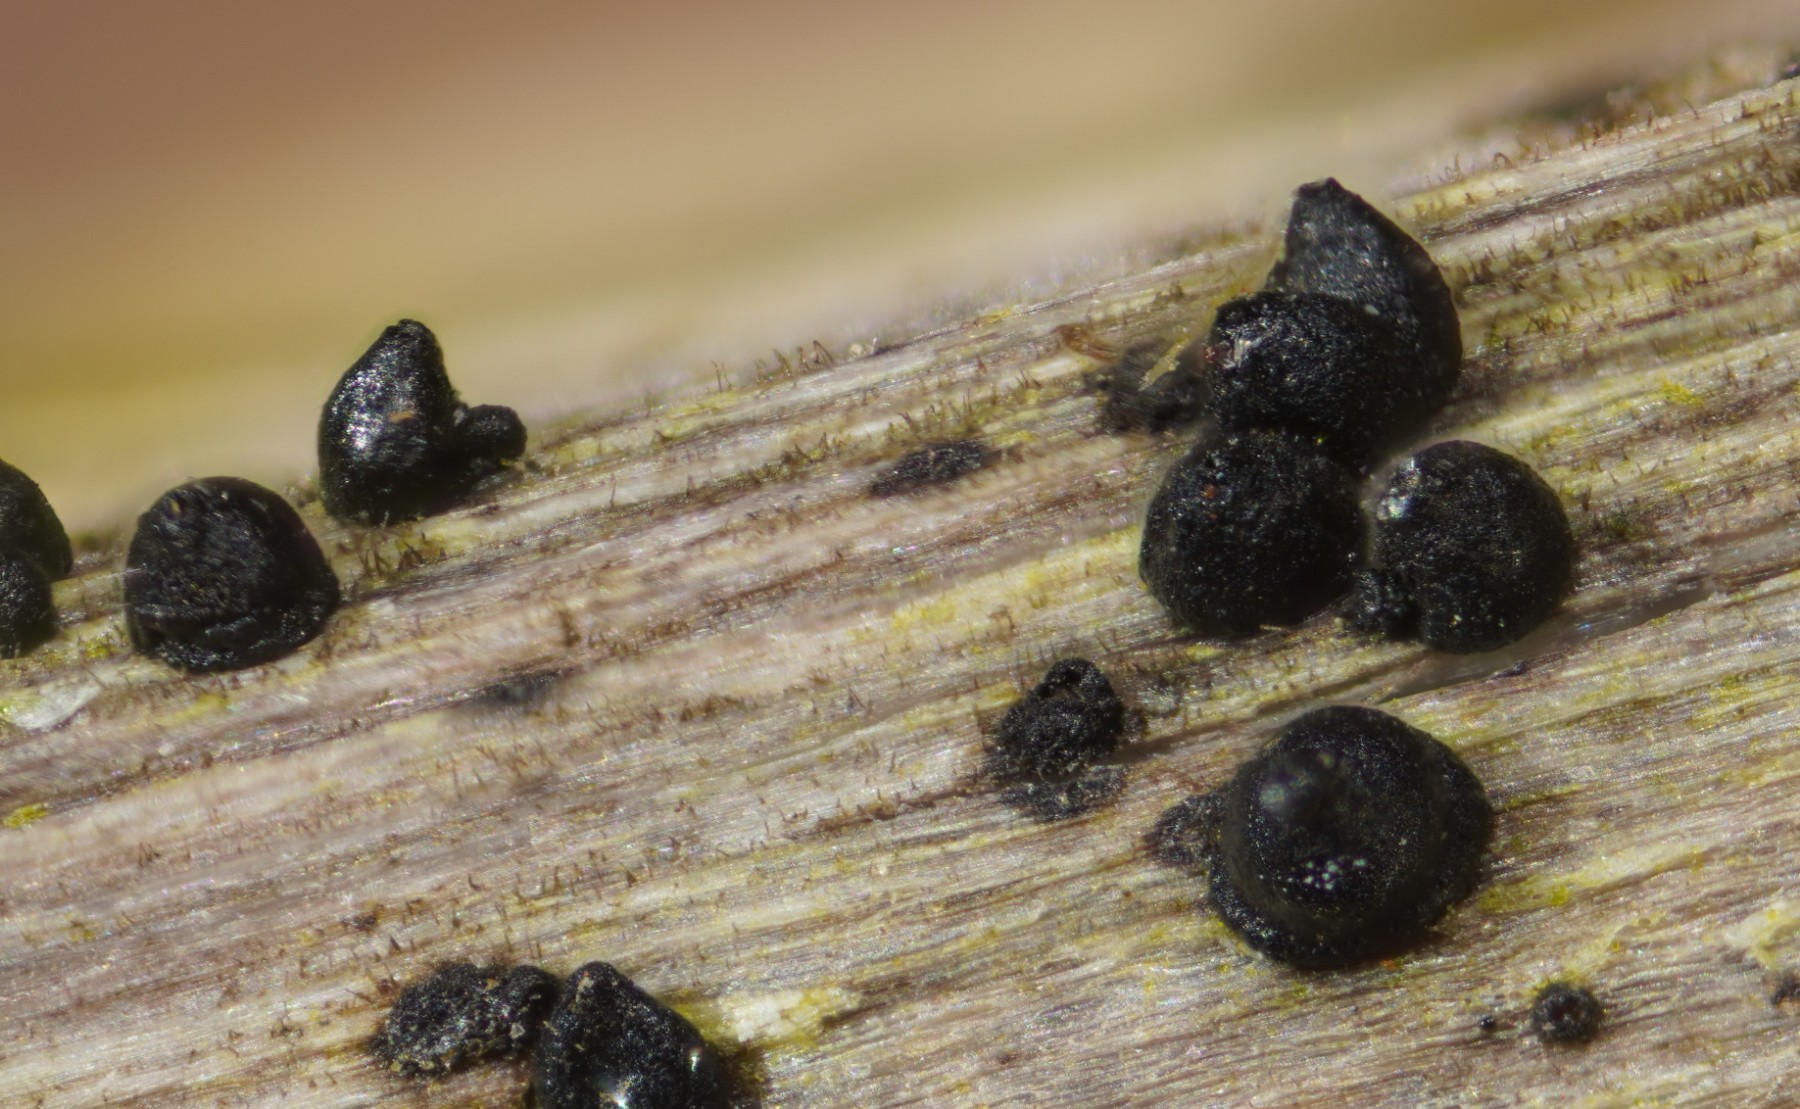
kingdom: Fungi
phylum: Ascomycota
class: Dothideomycetes
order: Pleosporales
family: Leptosphaeriaceae
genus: Leptosphaeria
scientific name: Leptosphaeria acuta
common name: spids kulkegle
